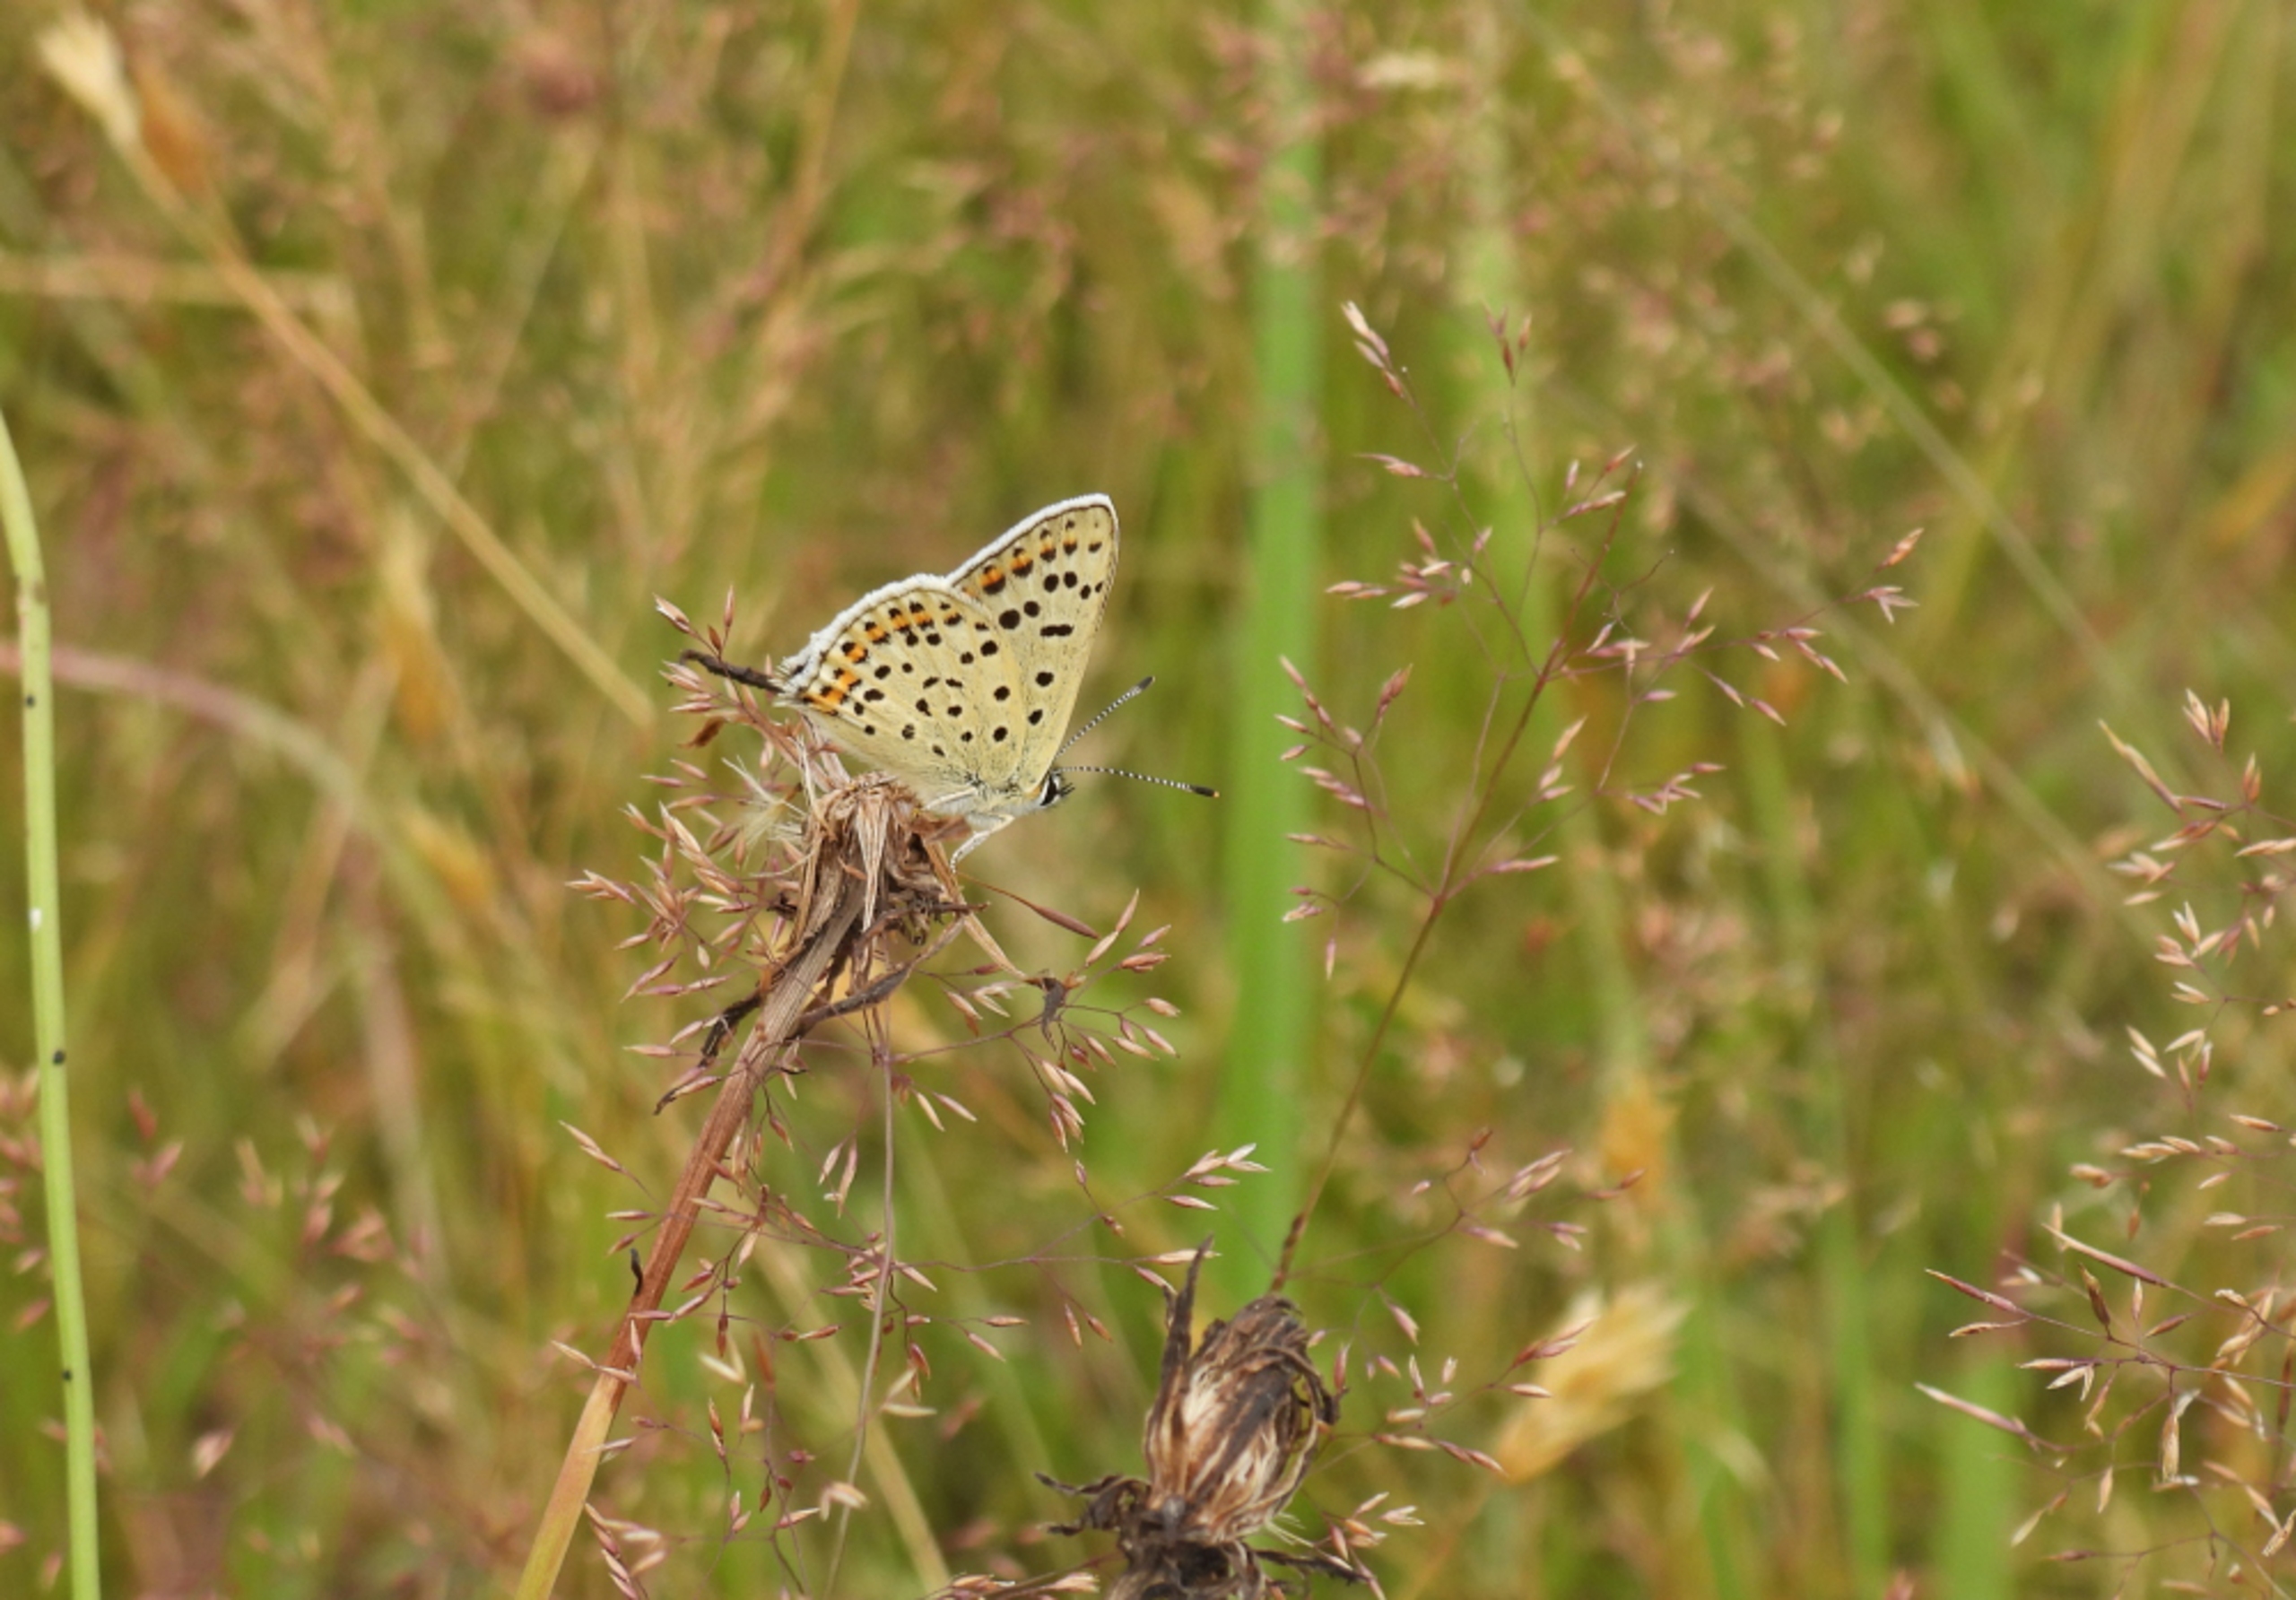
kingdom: Animalia
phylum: Arthropoda
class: Insecta
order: Lepidoptera
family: Lycaenidae
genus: Loweia
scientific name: Loweia tityrus
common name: Sort ildfugl
